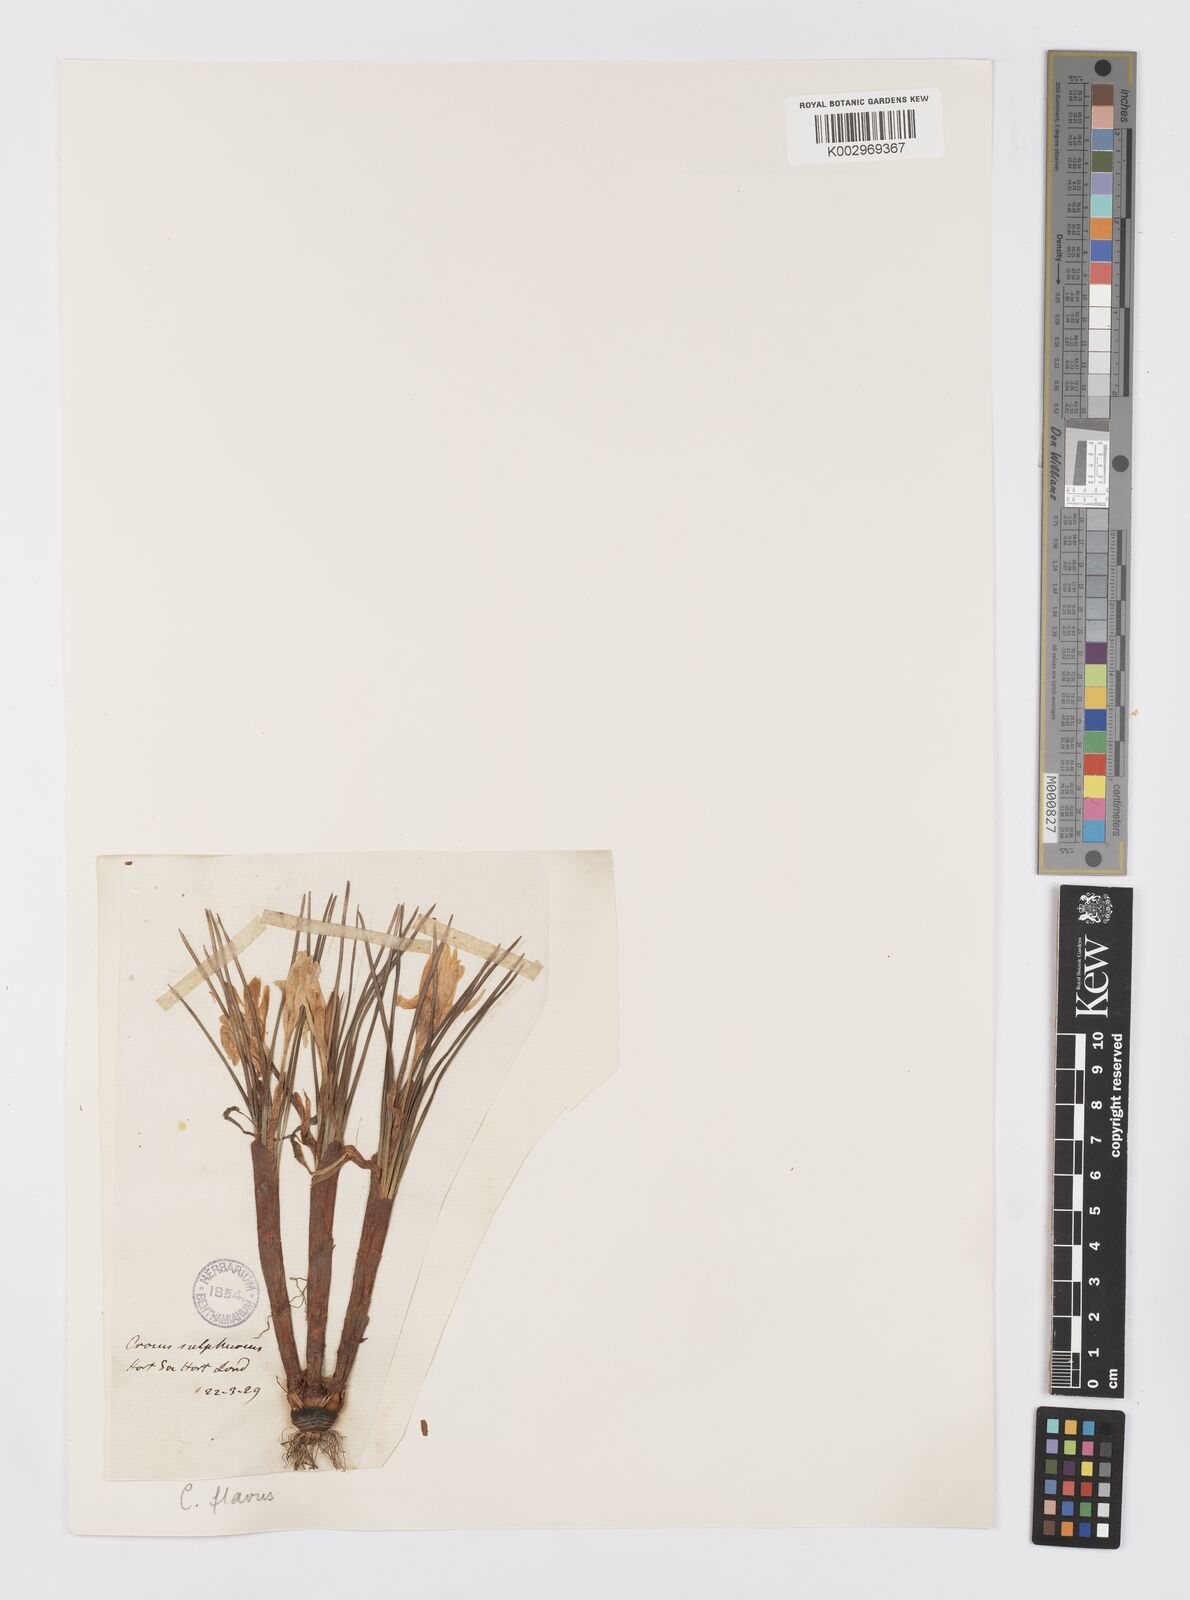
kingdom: Plantae
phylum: Tracheophyta
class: Liliopsida
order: Asparagales
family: Iridaceae
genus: Crocus
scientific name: Crocus flavus
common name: Yellow crocus
